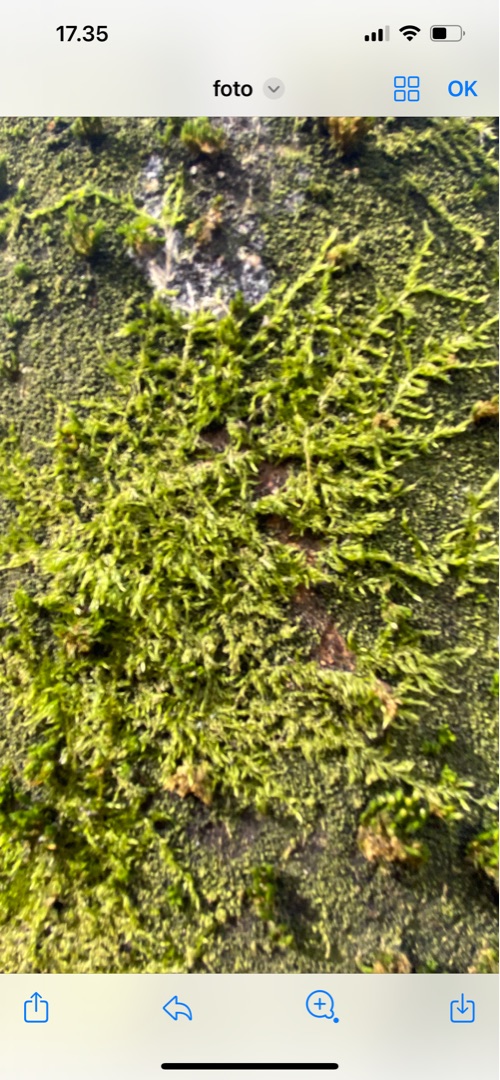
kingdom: Plantae
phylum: Bryophyta
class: Bryopsida
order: Hypnales
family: Hypnaceae
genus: Hypnum
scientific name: Hypnum
